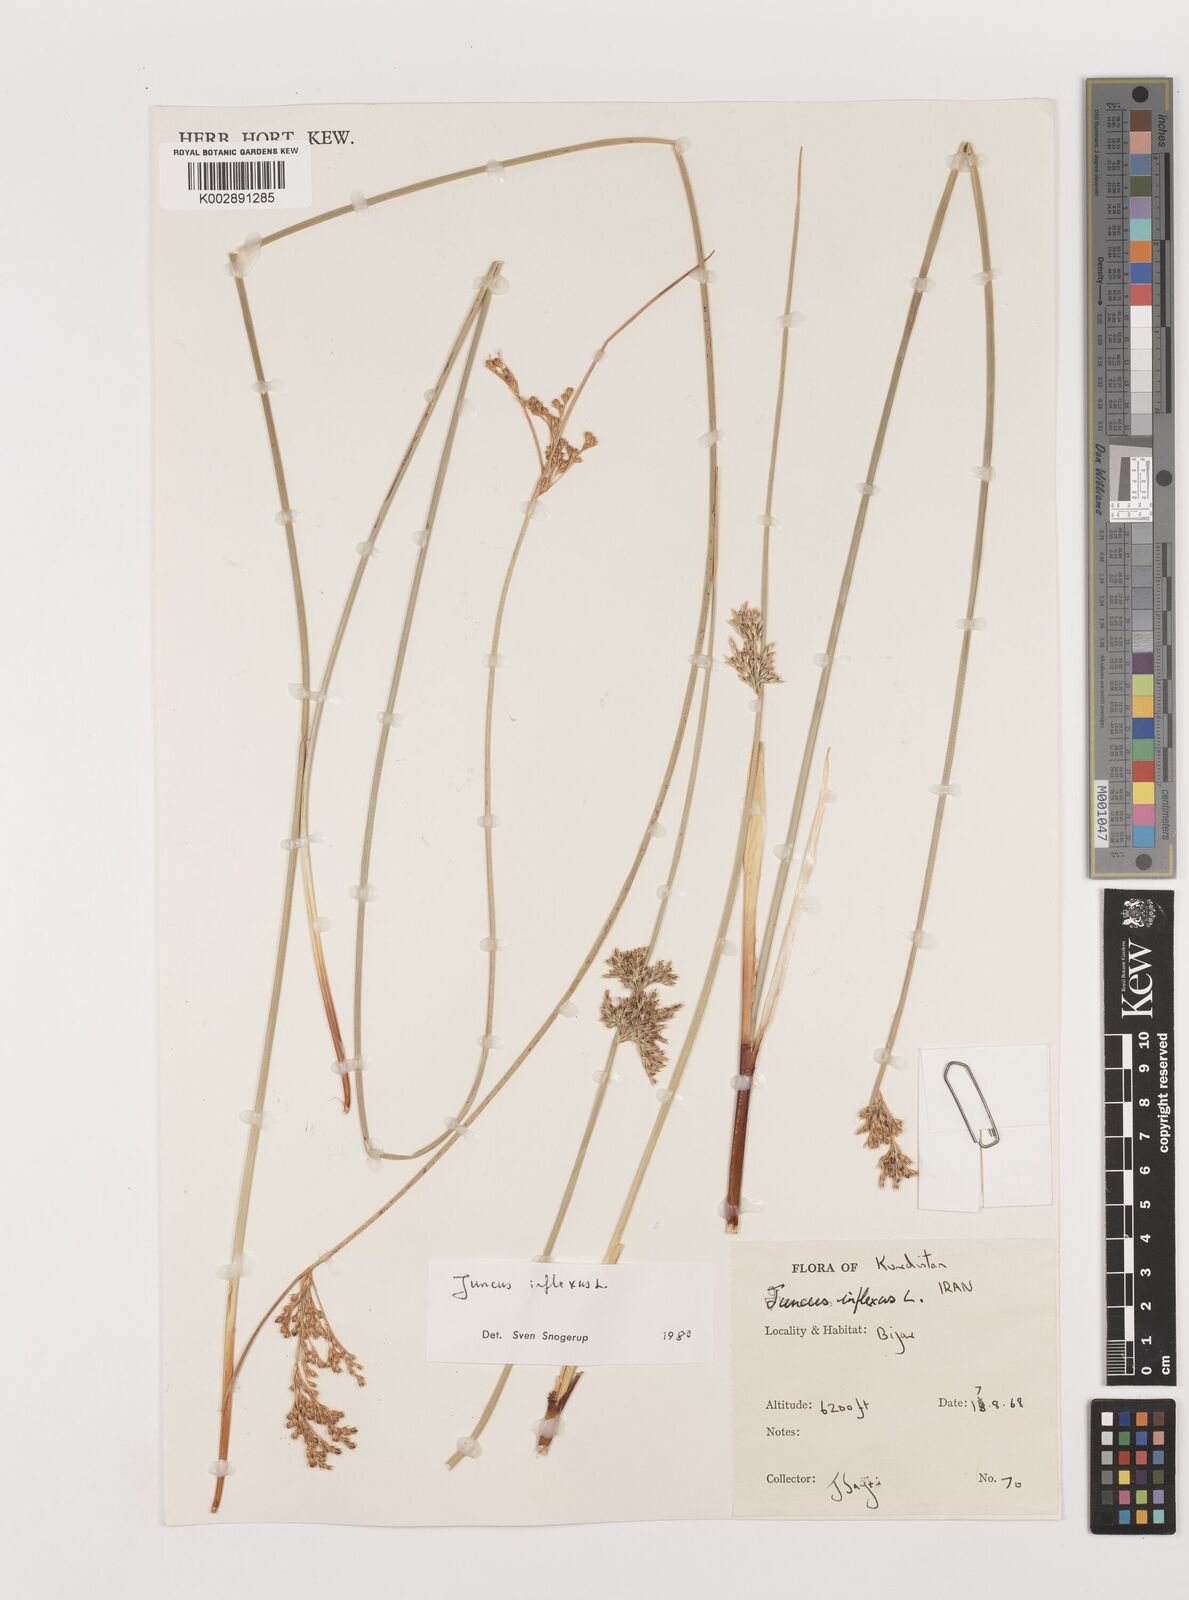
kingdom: Plantae
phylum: Tracheophyta
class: Liliopsida
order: Poales
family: Juncaceae
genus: Juncus
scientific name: Juncus inflexus
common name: Hard rush
